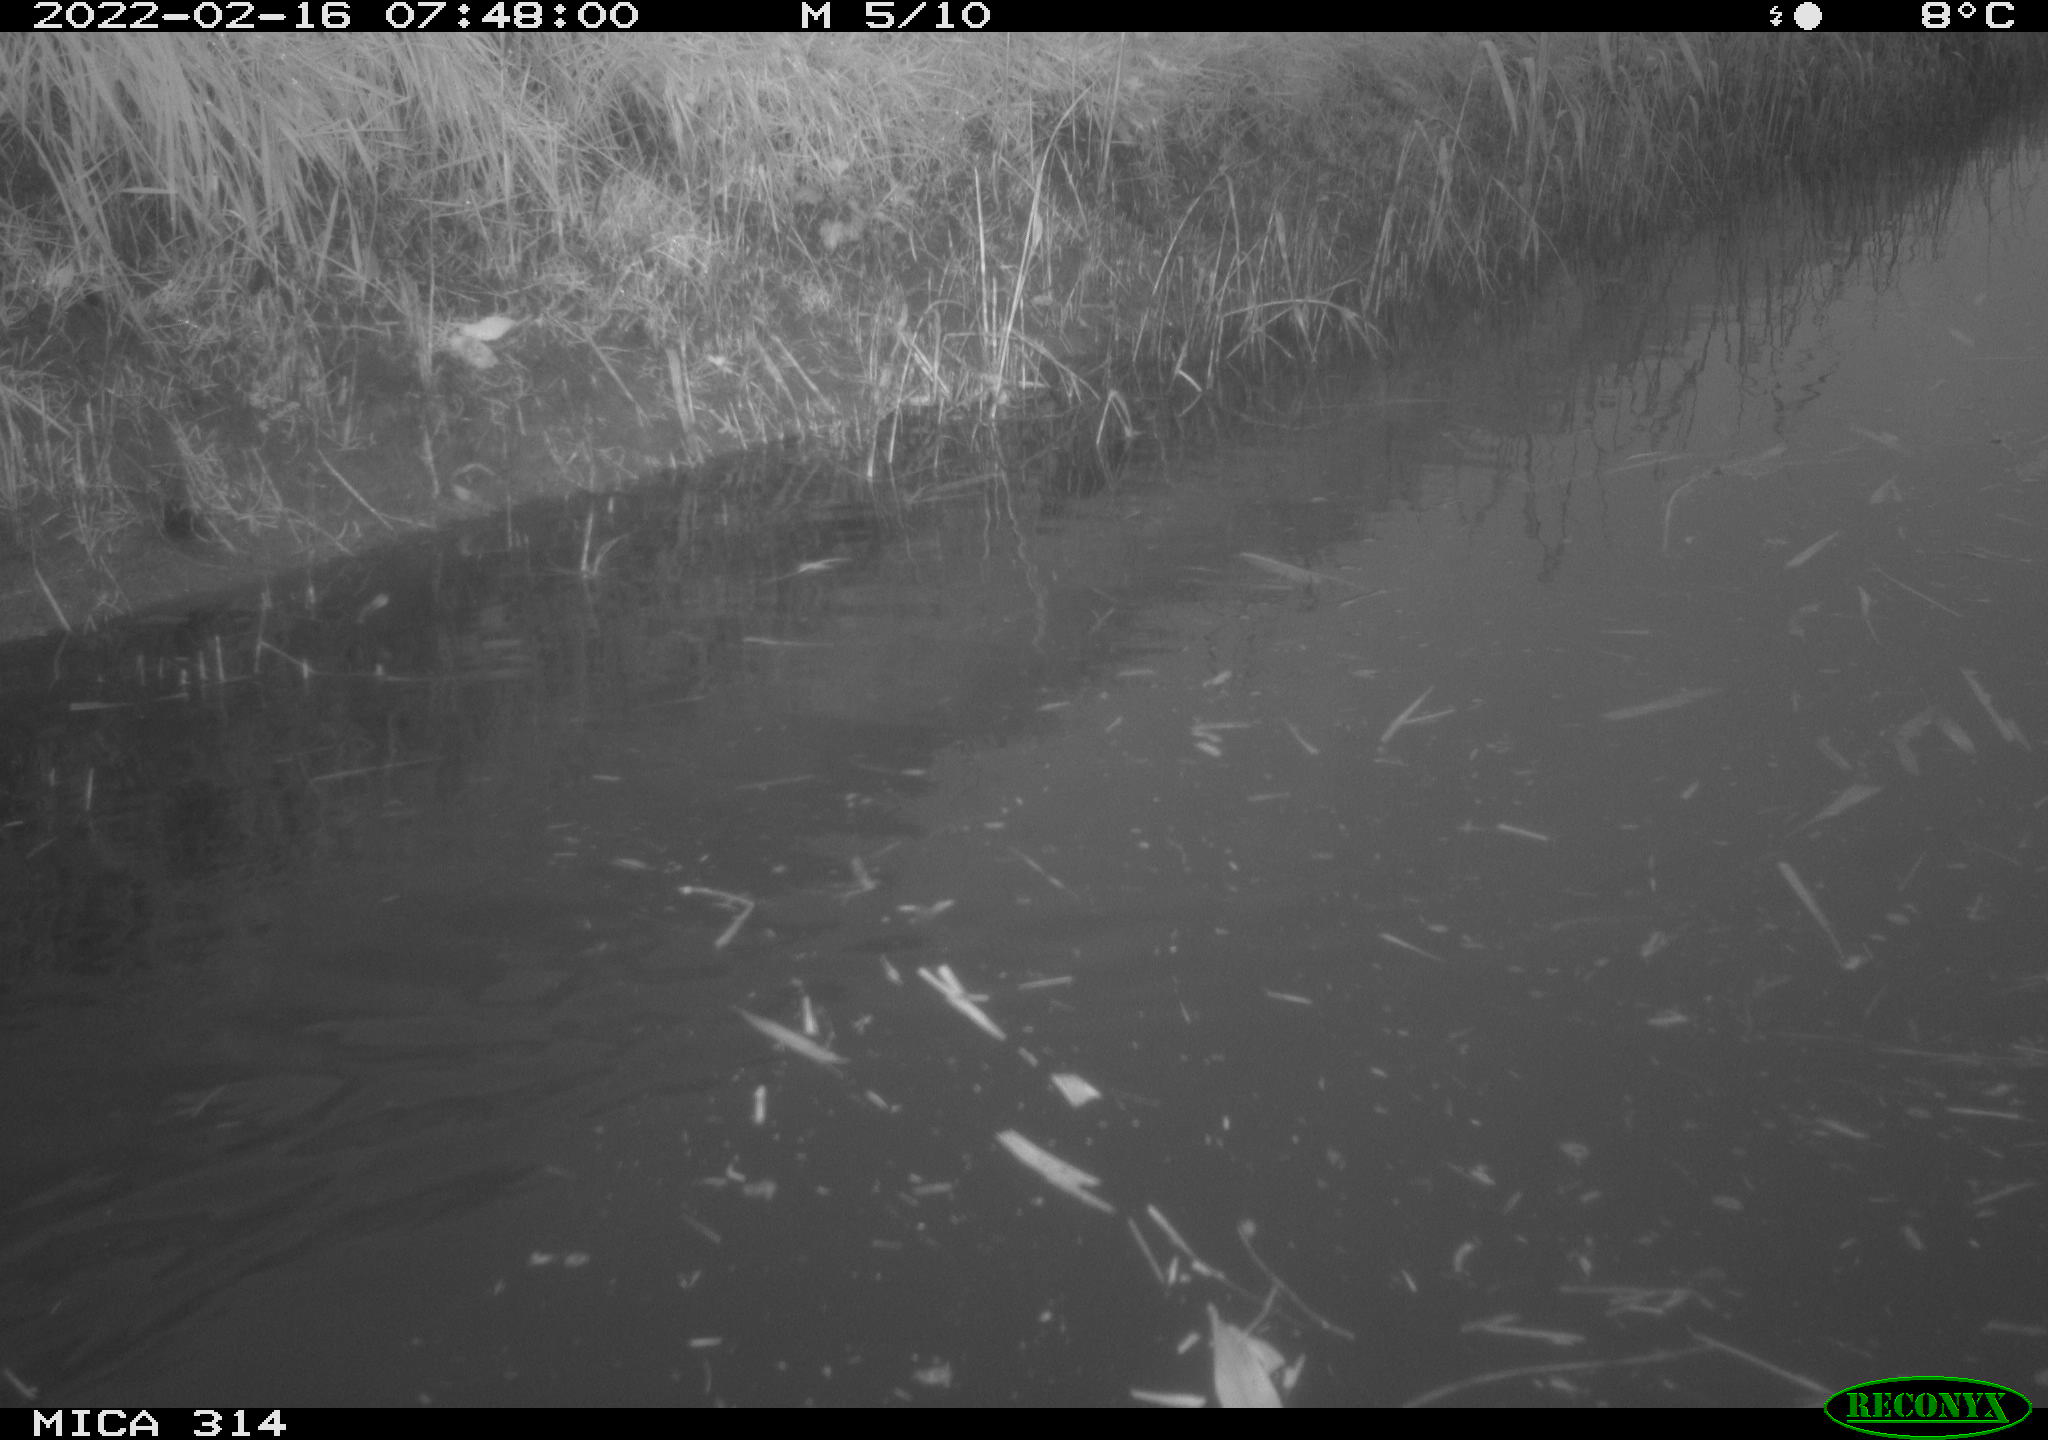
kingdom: Animalia
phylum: Chordata
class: Aves
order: Gruiformes
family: Rallidae
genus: Gallinula
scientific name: Gallinula chloropus
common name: Common moorhen
